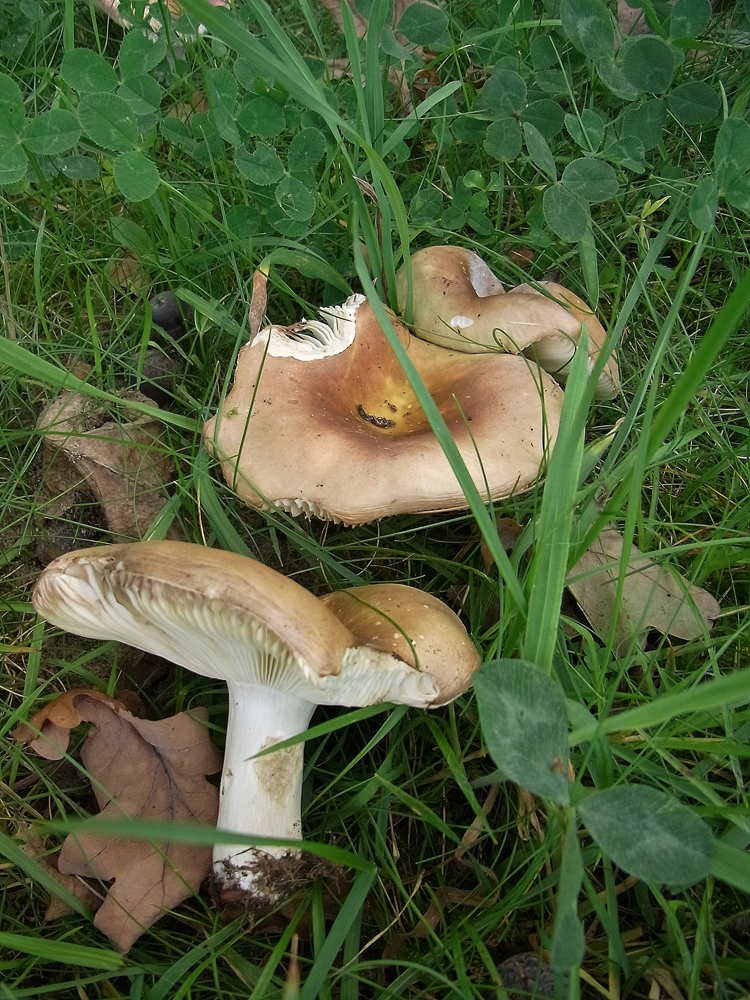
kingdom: Fungi
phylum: Basidiomycota
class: Agaricomycetes
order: Russulales
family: Russulaceae
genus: Russula
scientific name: Russula graveolens
